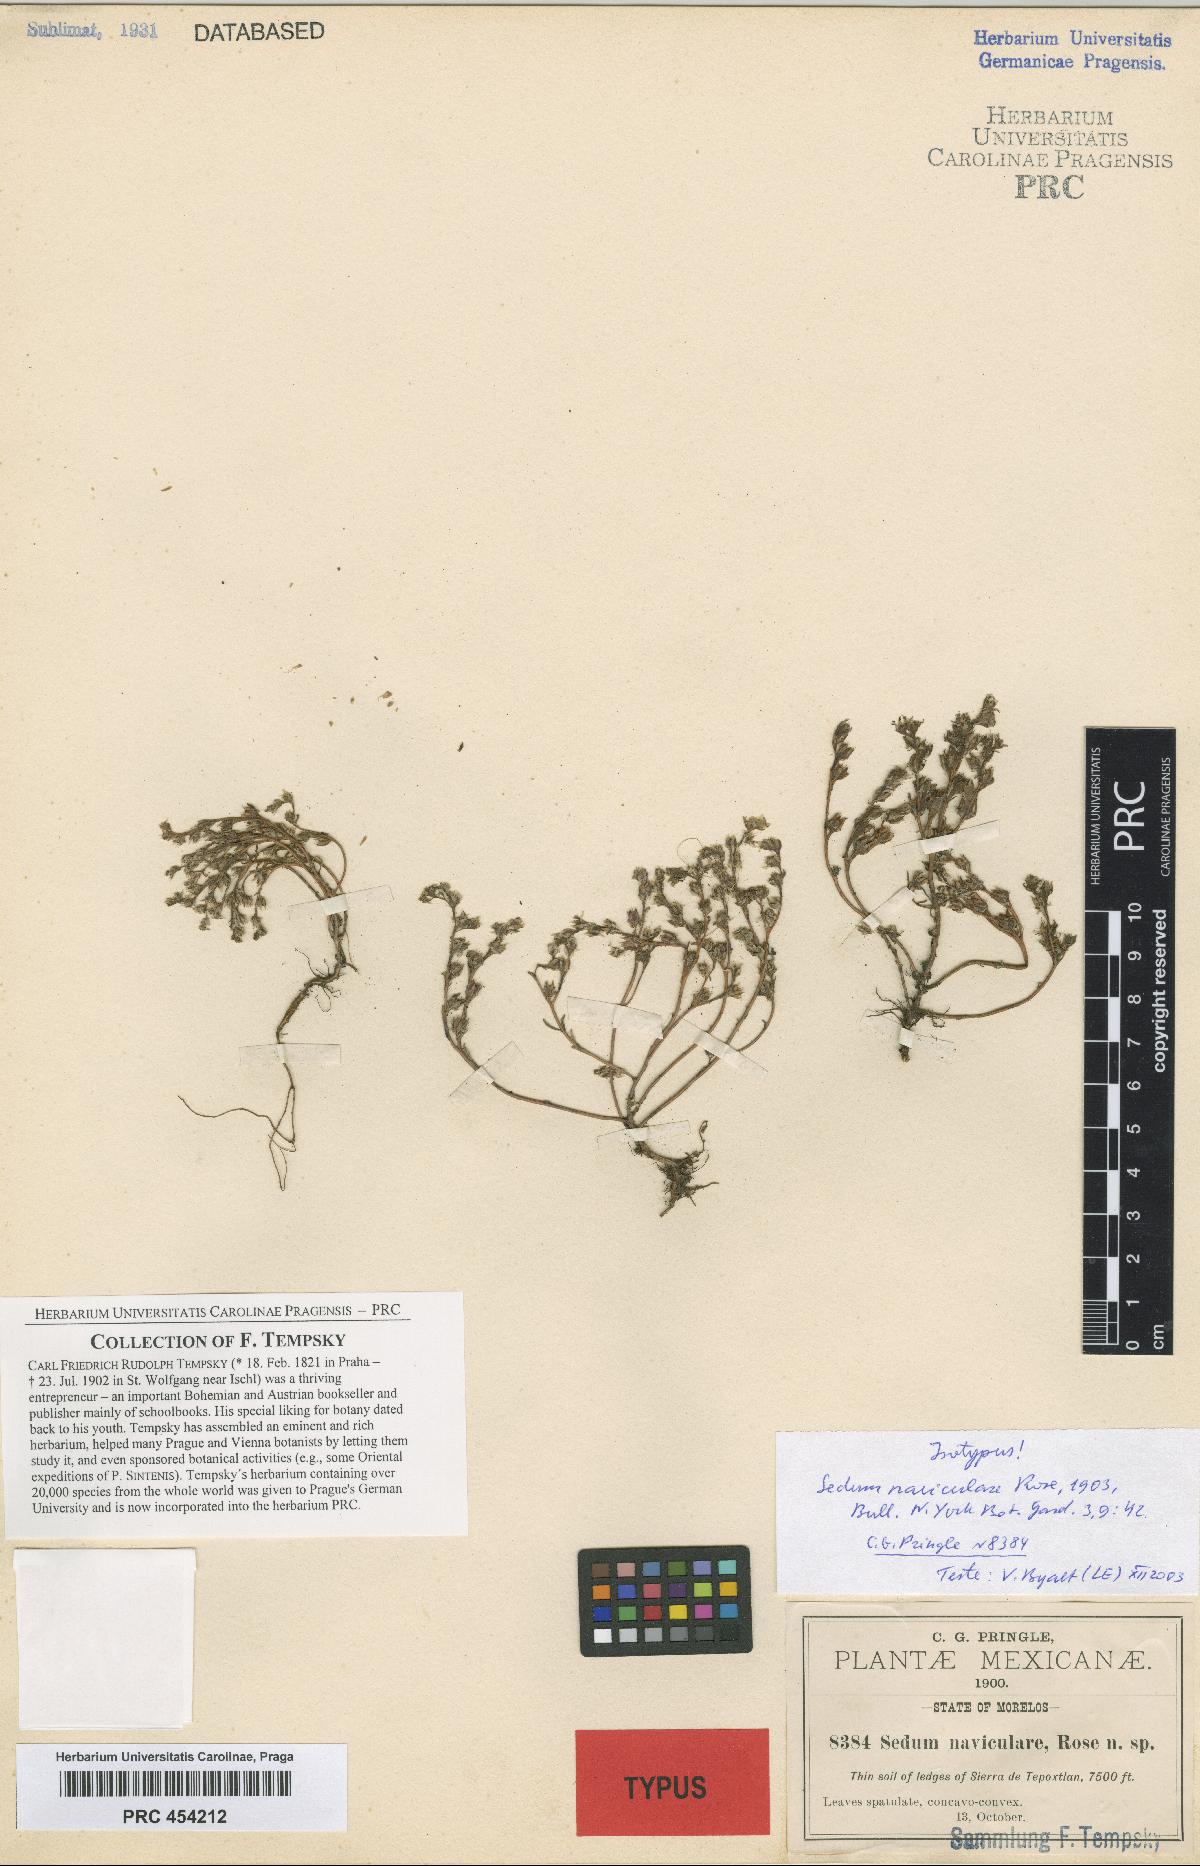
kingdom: Plantae
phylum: Tracheophyta
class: Magnoliopsida
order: Saxifragales
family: Crassulaceae
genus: Sedum
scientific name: Sedum jaliscanum
